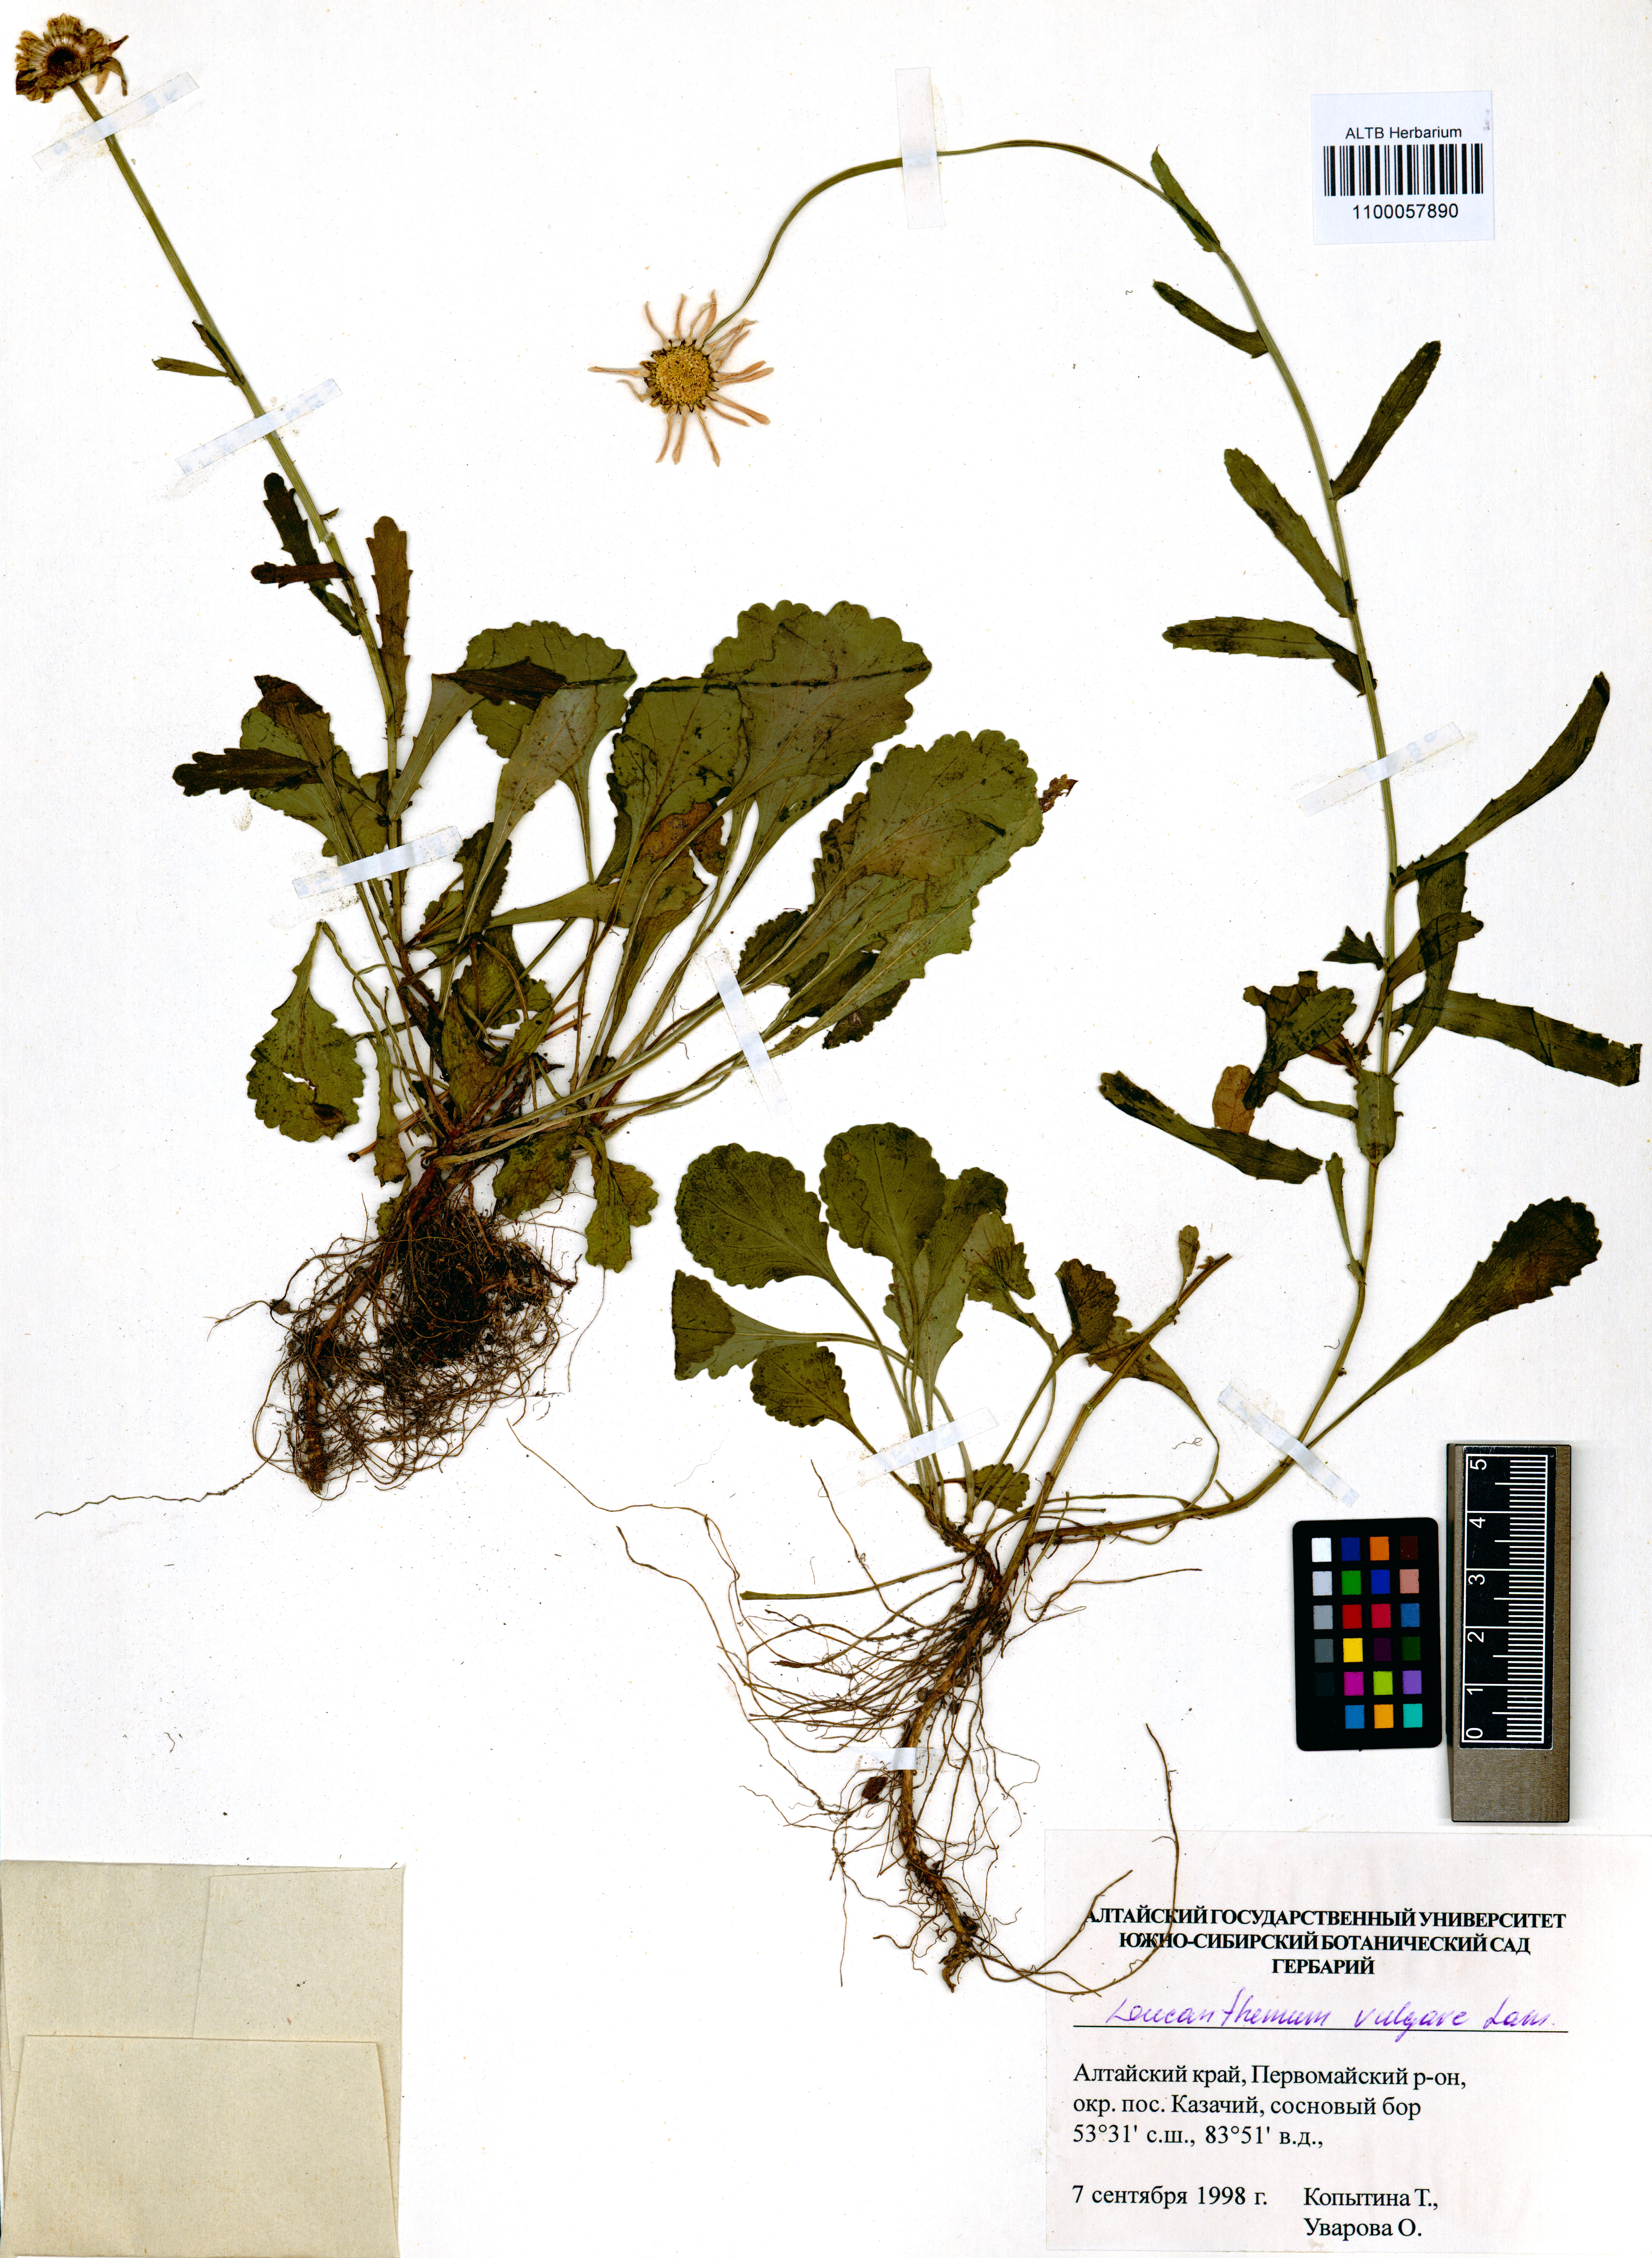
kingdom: Plantae
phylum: Tracheophyta
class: Magnoliopsida
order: Asterales
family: Asteraceae
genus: Leucanthemum
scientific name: Leucanthemum vulgare
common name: Oxeye daisy
